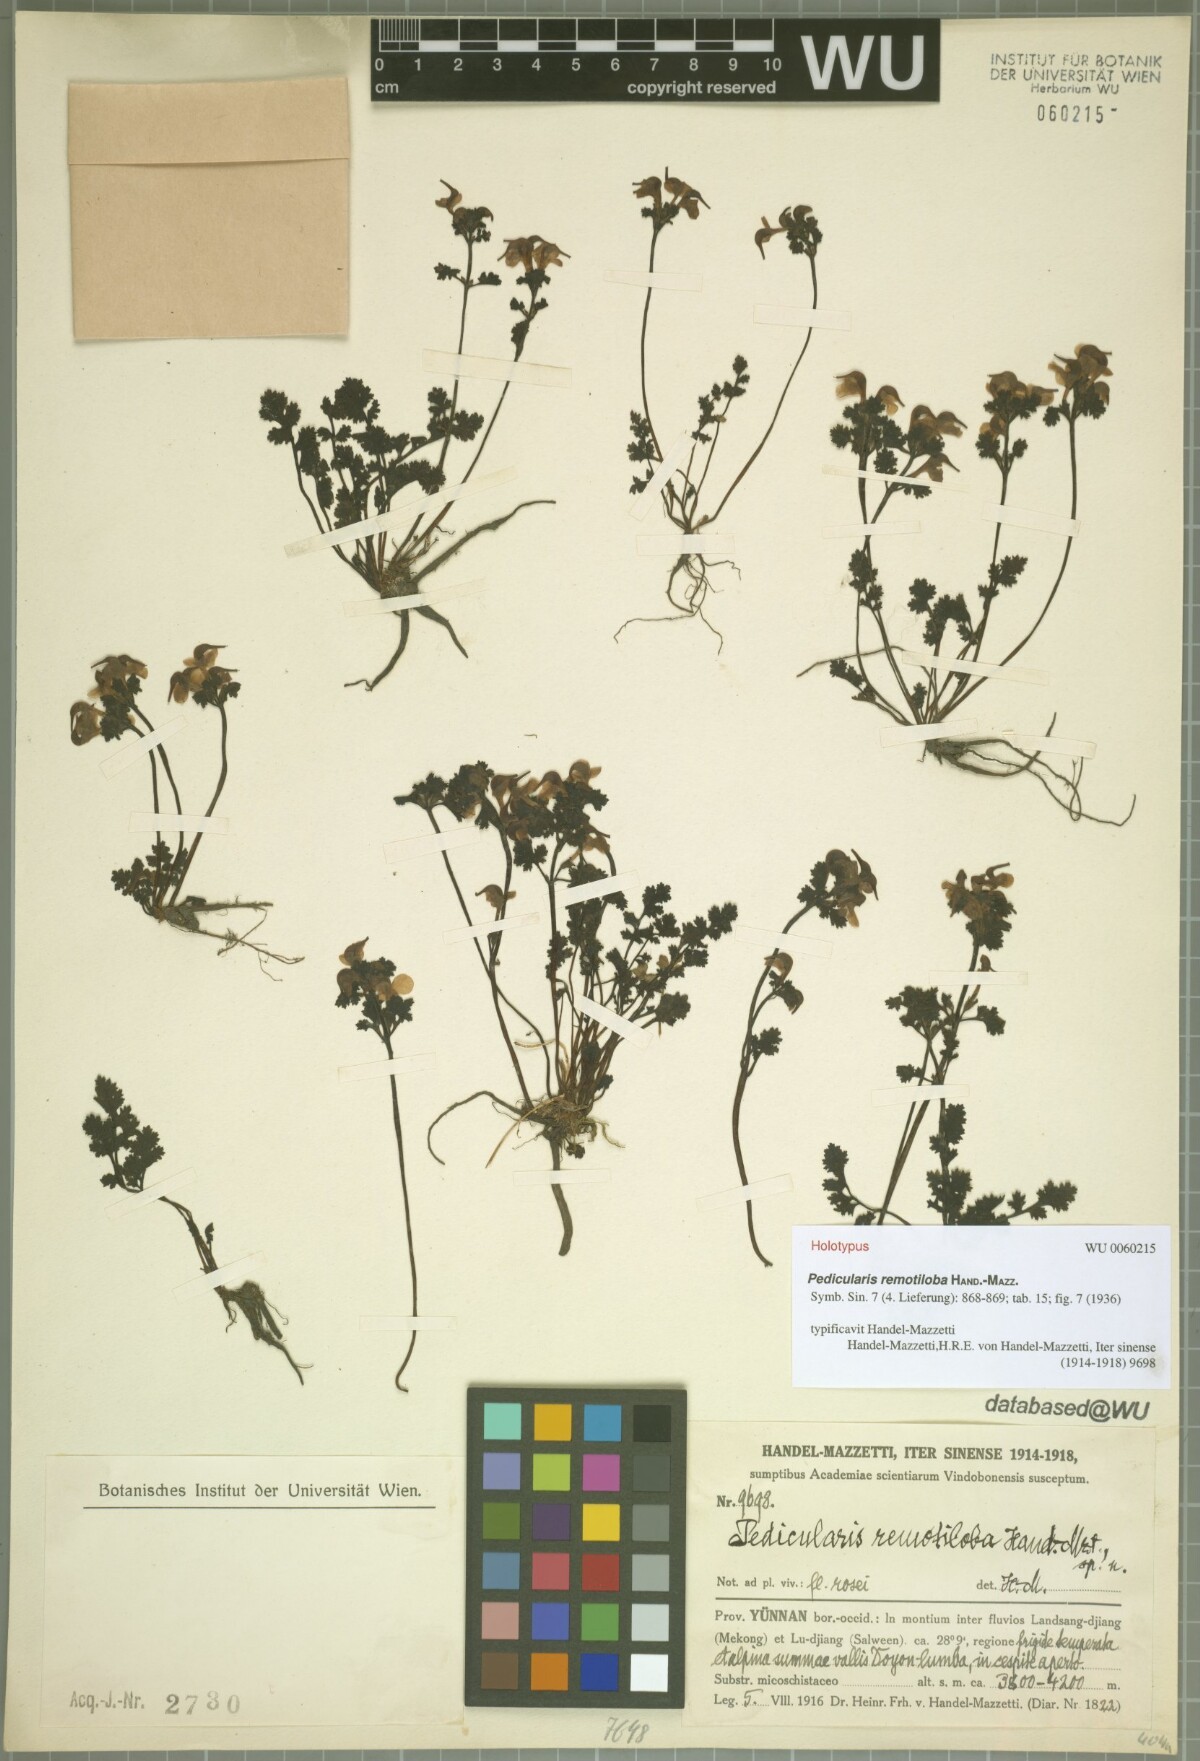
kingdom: Plantae
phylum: Tracheophyta
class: Magnoliopsida
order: Lamiales
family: Orobanchaceae
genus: Pedicularis
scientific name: Pedicularis remotiloba
